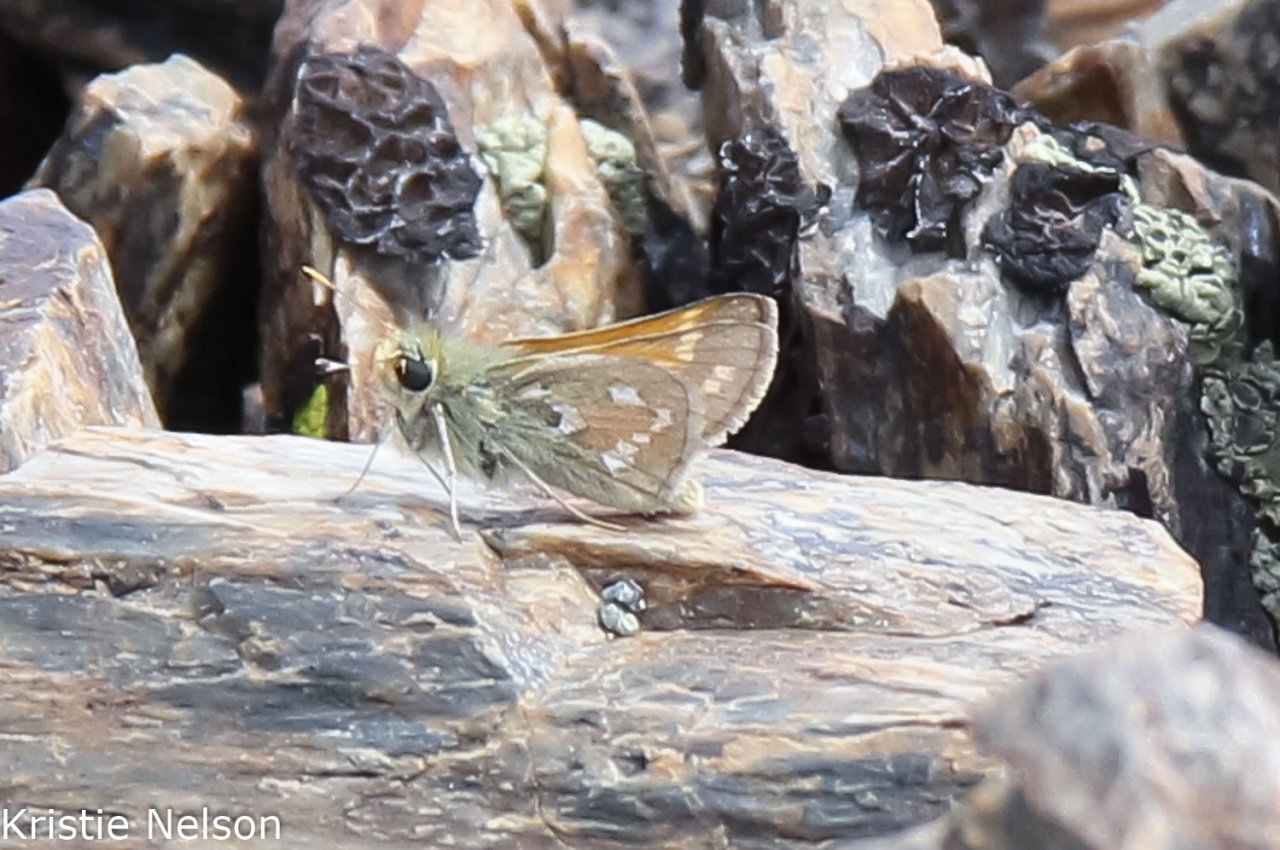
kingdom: Animalia
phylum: Arthropoda
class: Insecta
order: Lepidoptera
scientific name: Lepidoptera
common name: Butterflies
